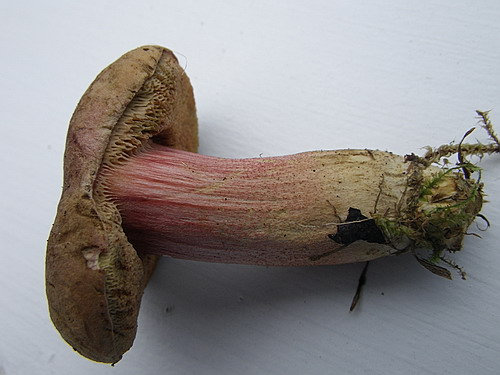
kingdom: Fungi
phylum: Basidiomycota
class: Agaricomycetes
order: Boletales
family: Boletaceae
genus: Hortiboletus
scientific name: Hortiboletus rubellus
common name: blodrød rørhat
